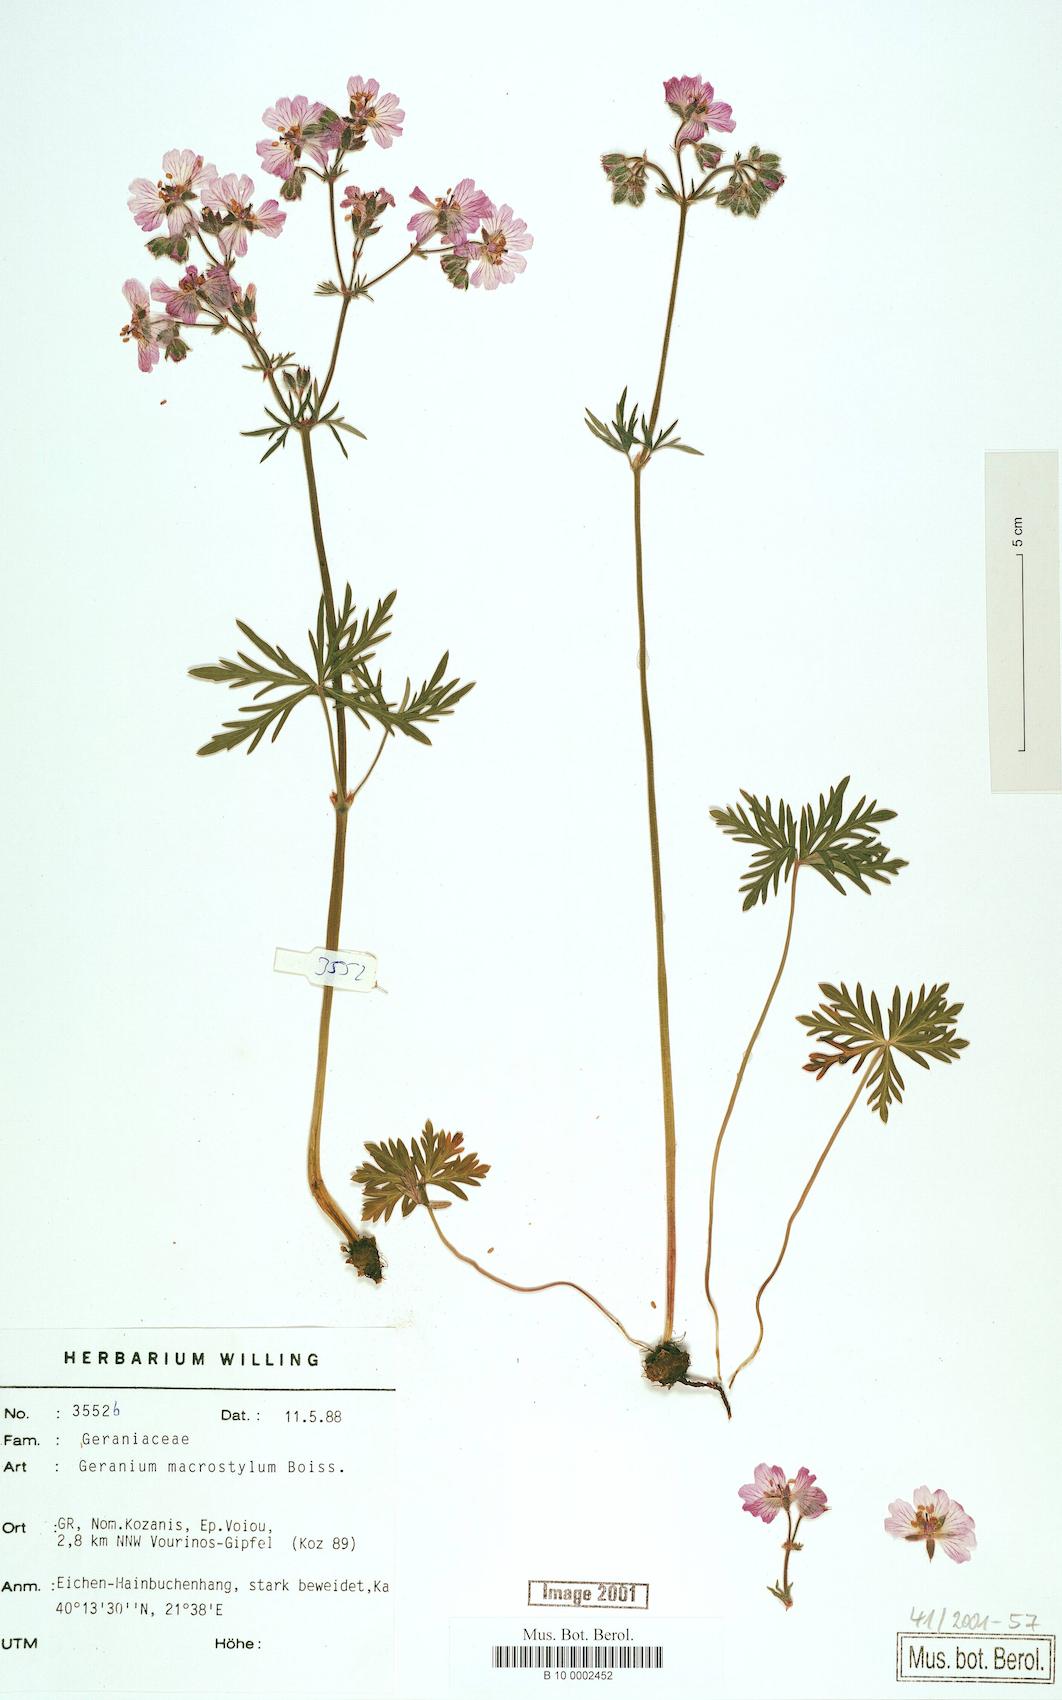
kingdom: Plantae
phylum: Tracheophyta
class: Magnoliopsida
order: Geraniales
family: Geraniaceae
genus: Geranium
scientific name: Geranium macrostylum
